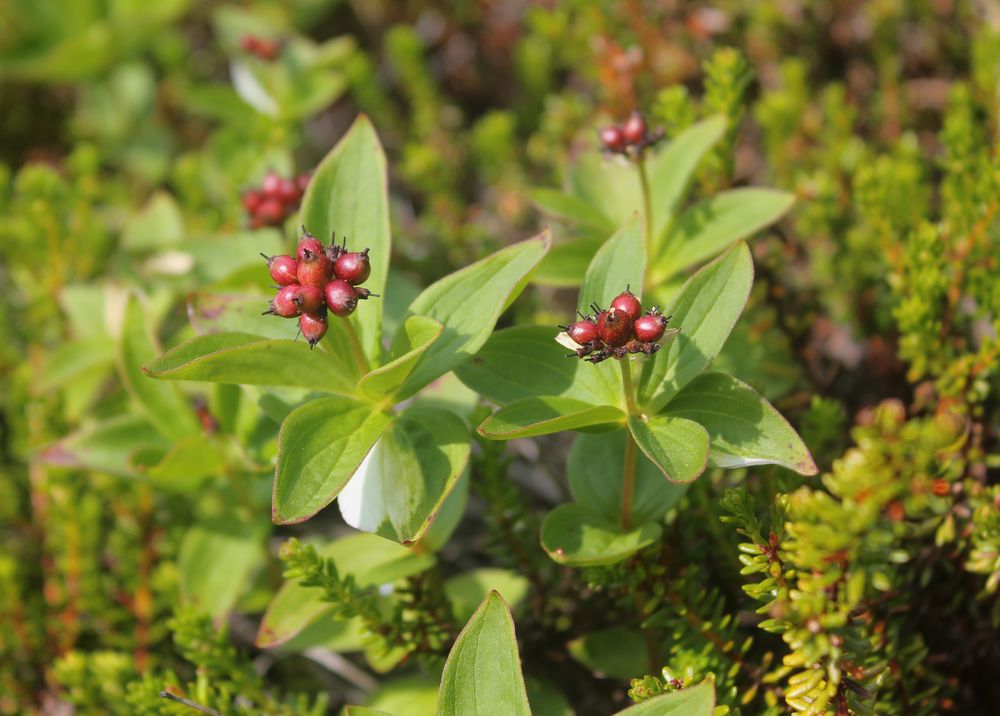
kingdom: Plantae
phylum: Tracheophyta
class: Magnoliopsida
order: Cornales
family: Cornaceae
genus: Cornus
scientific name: Cornus suecica
